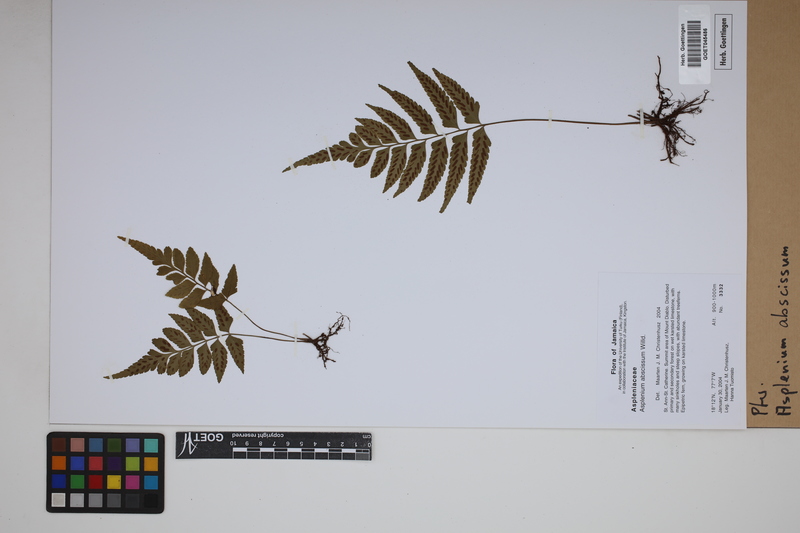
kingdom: Plantae
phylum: Tracheophyta
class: Polypodiopsida
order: Polypodiales
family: Aspleniaceae
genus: Asplenium
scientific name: Asplenium abscissum
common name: Cutleaf spleenwort
